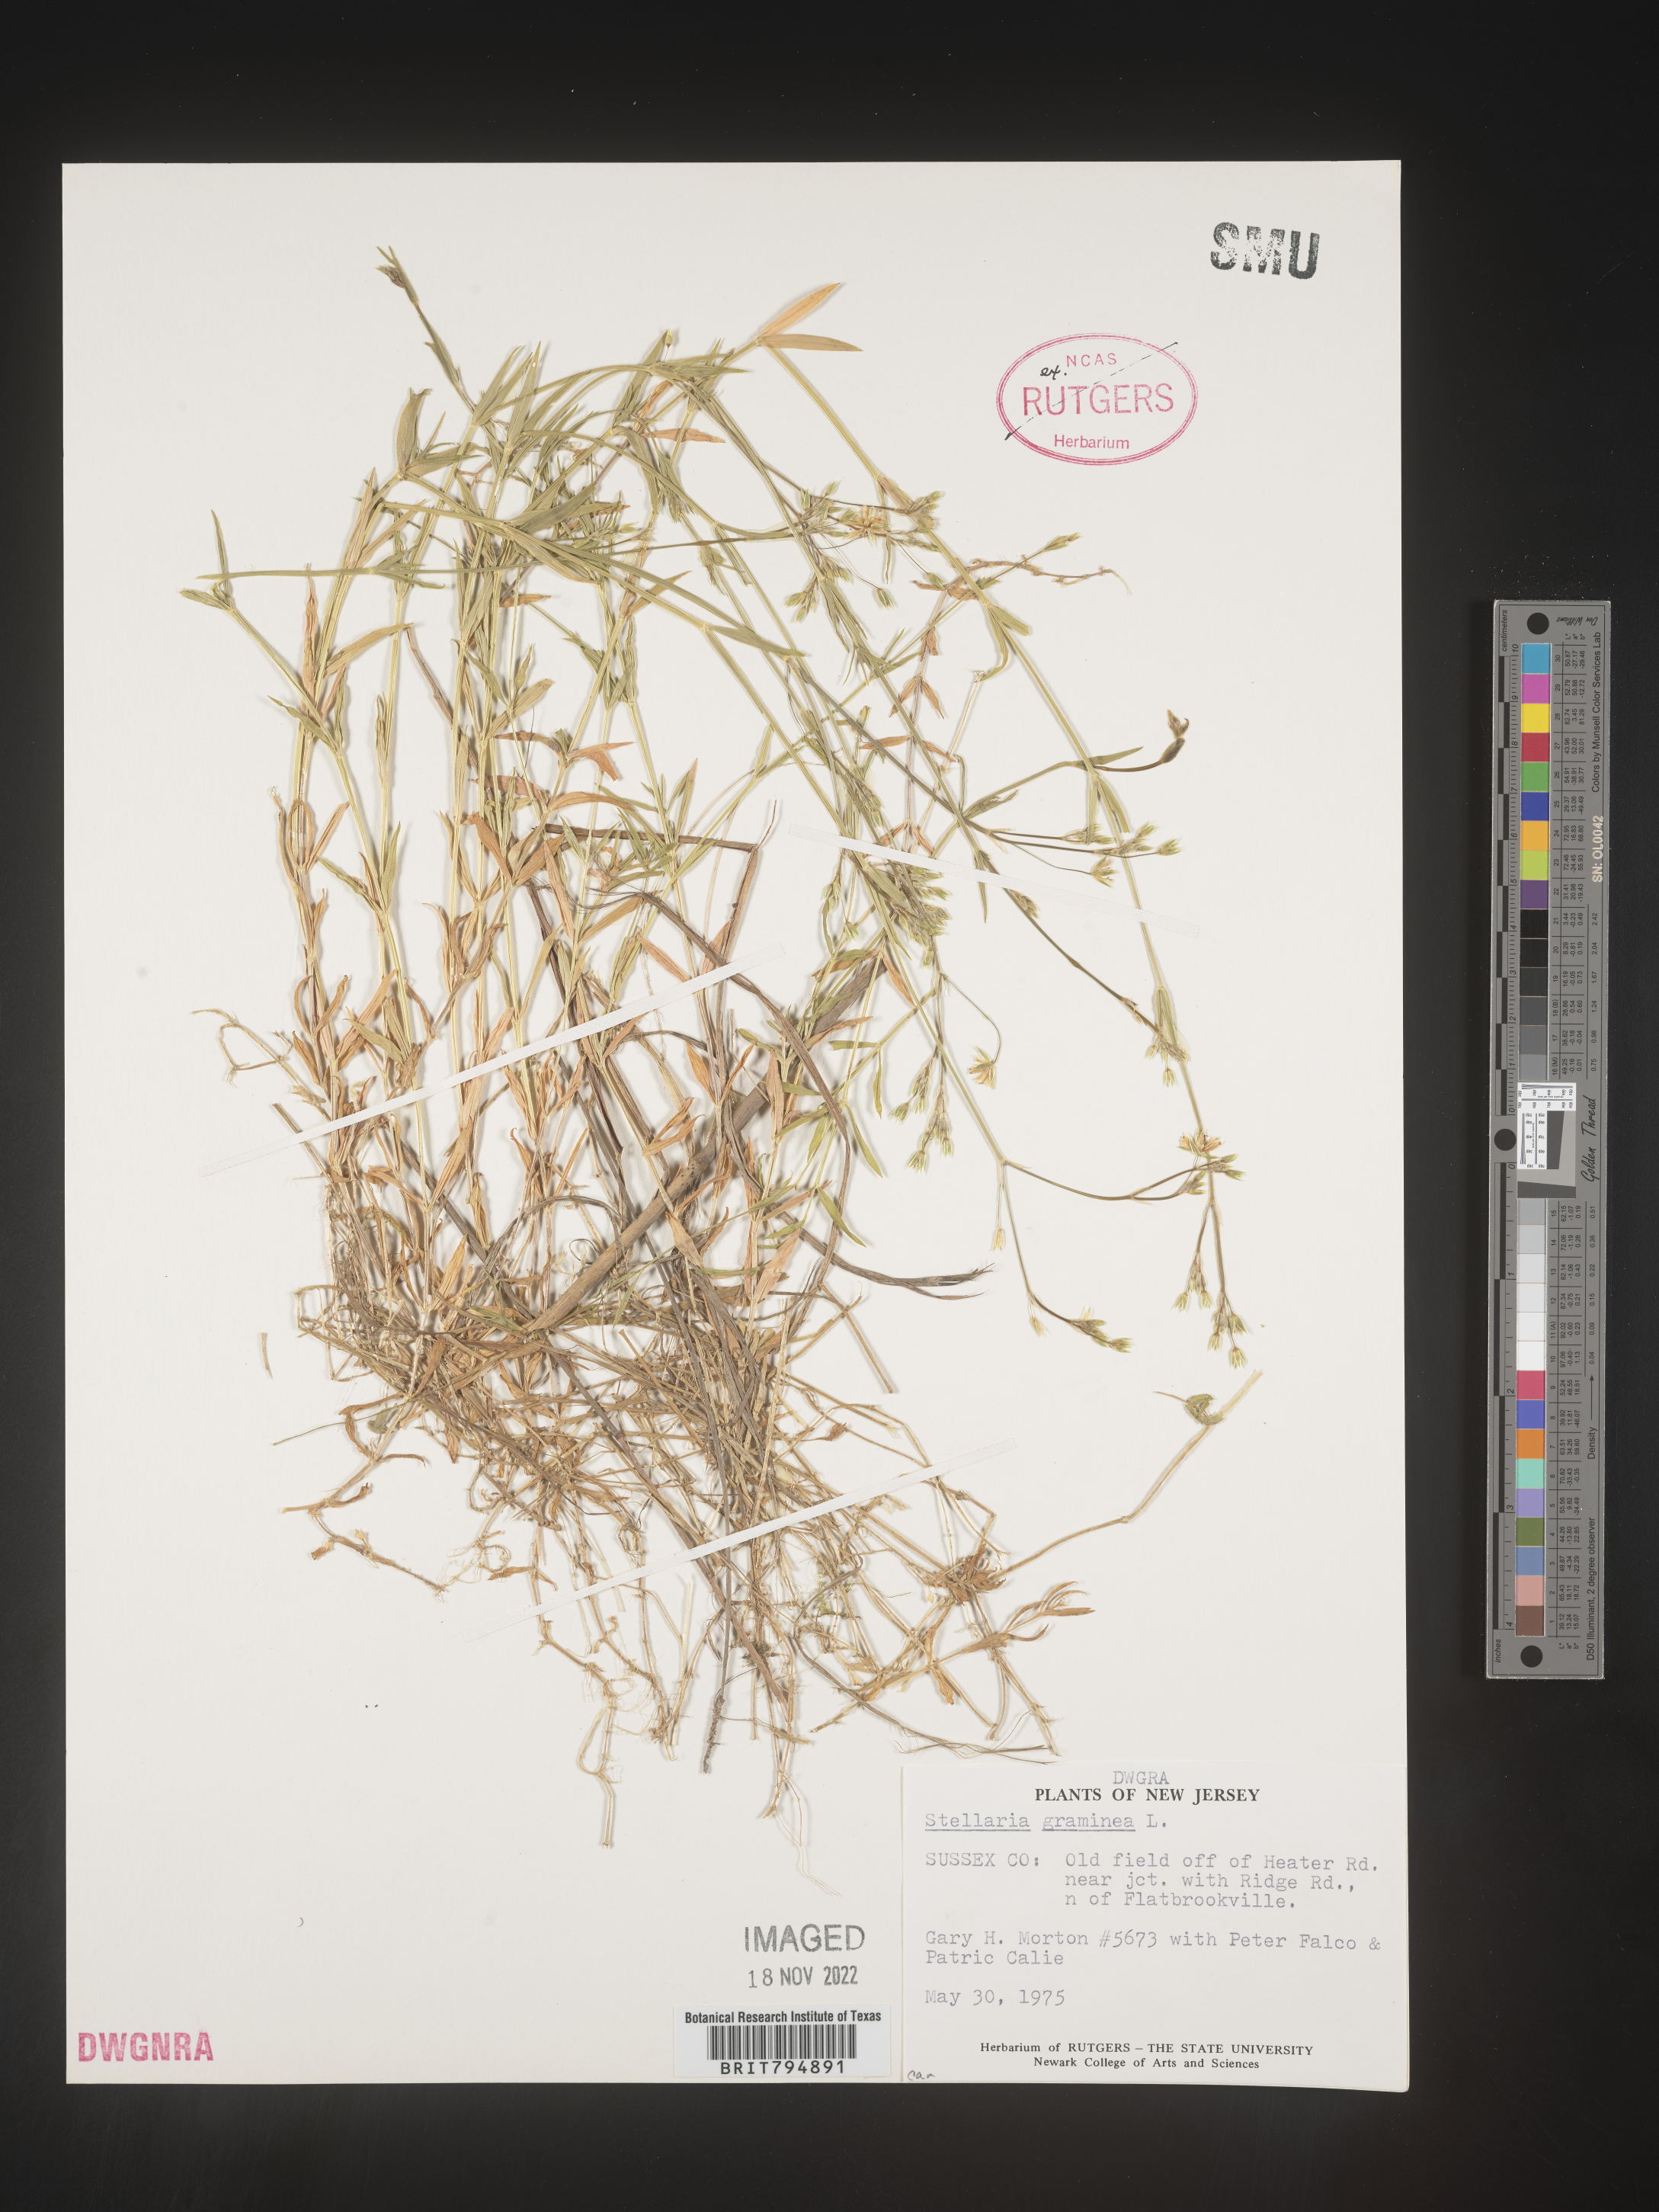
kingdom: Plantae
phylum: Tracheophyta
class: Magnoliopsida
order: Caryophyllales
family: Caryophyllaceae
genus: Stellaria
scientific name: Stellaria graminea
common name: Grass-like starwort
